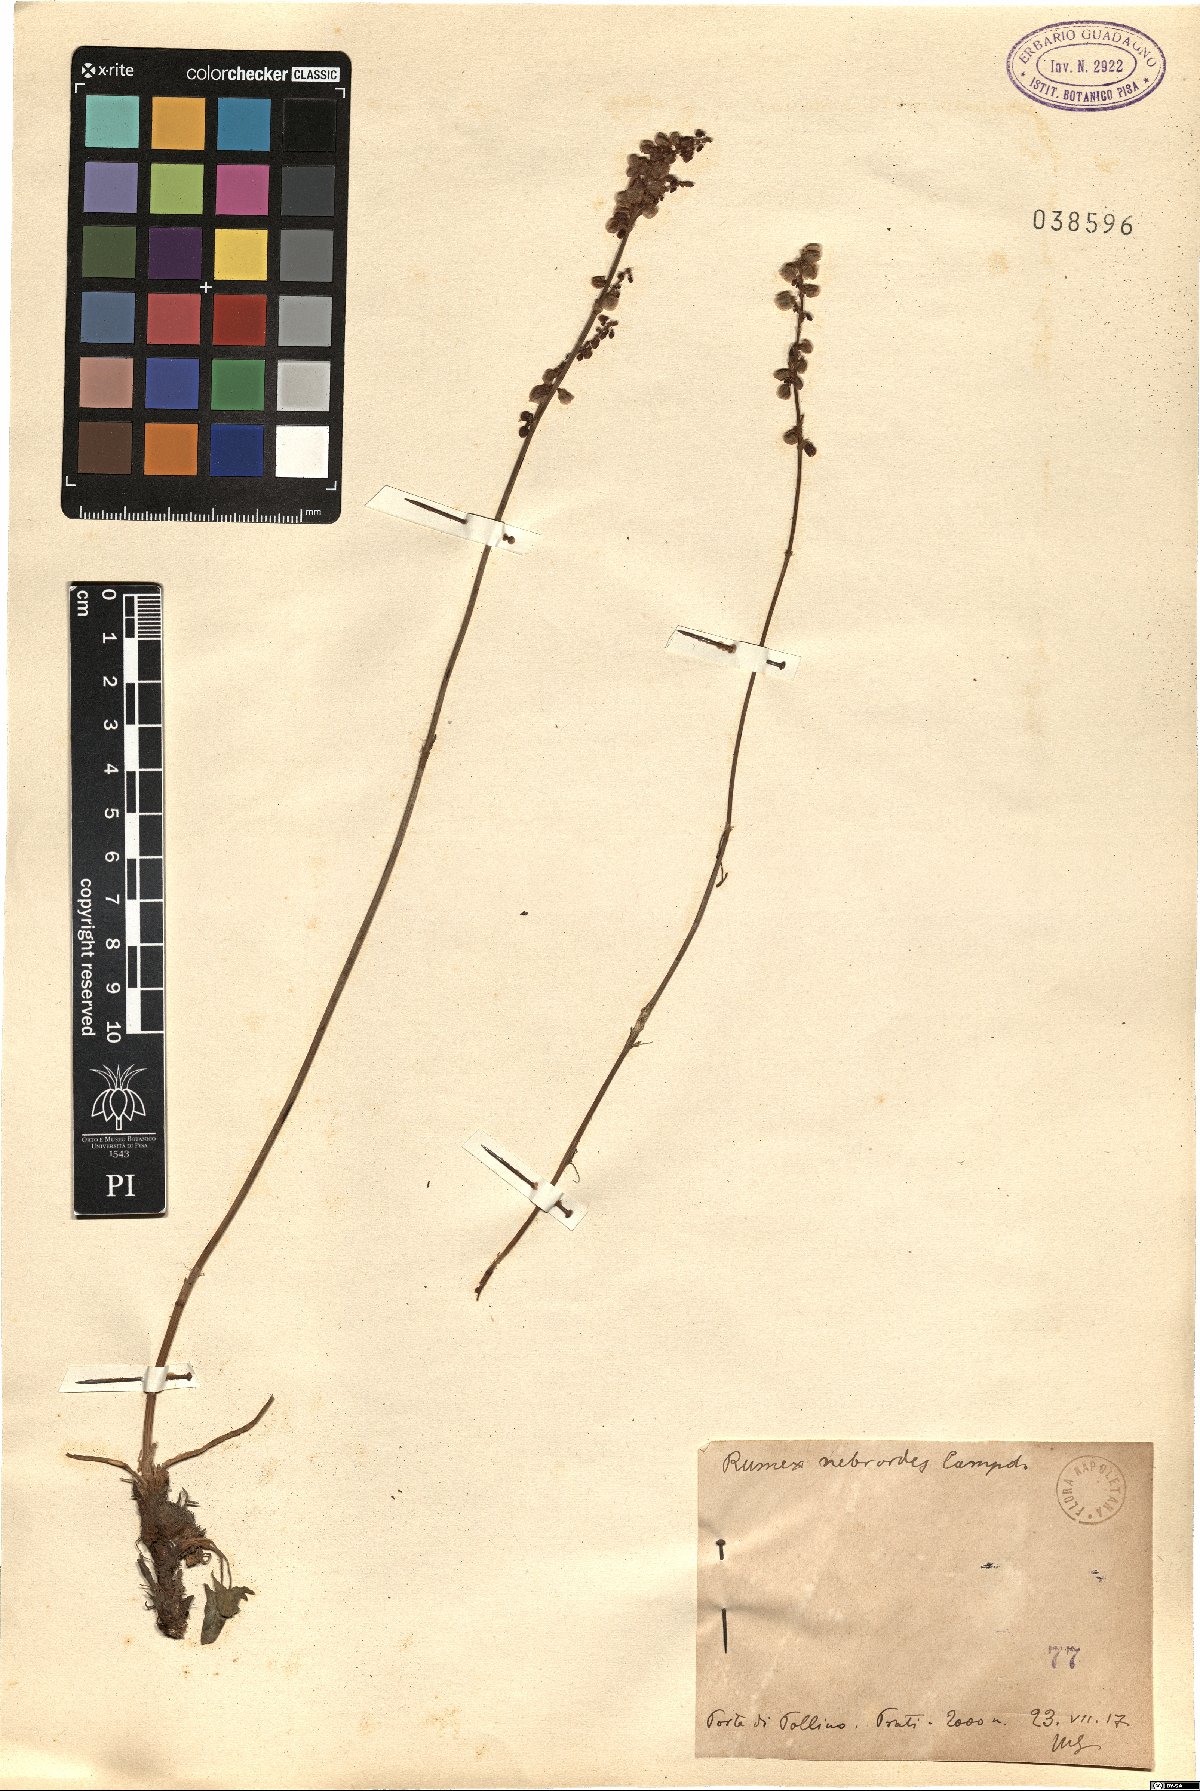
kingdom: Plantae
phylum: Tracheophyta
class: Magnoliopsida
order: Caryophyllales
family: Polygonaceae
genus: Rumex
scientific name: Rumex nebroides
